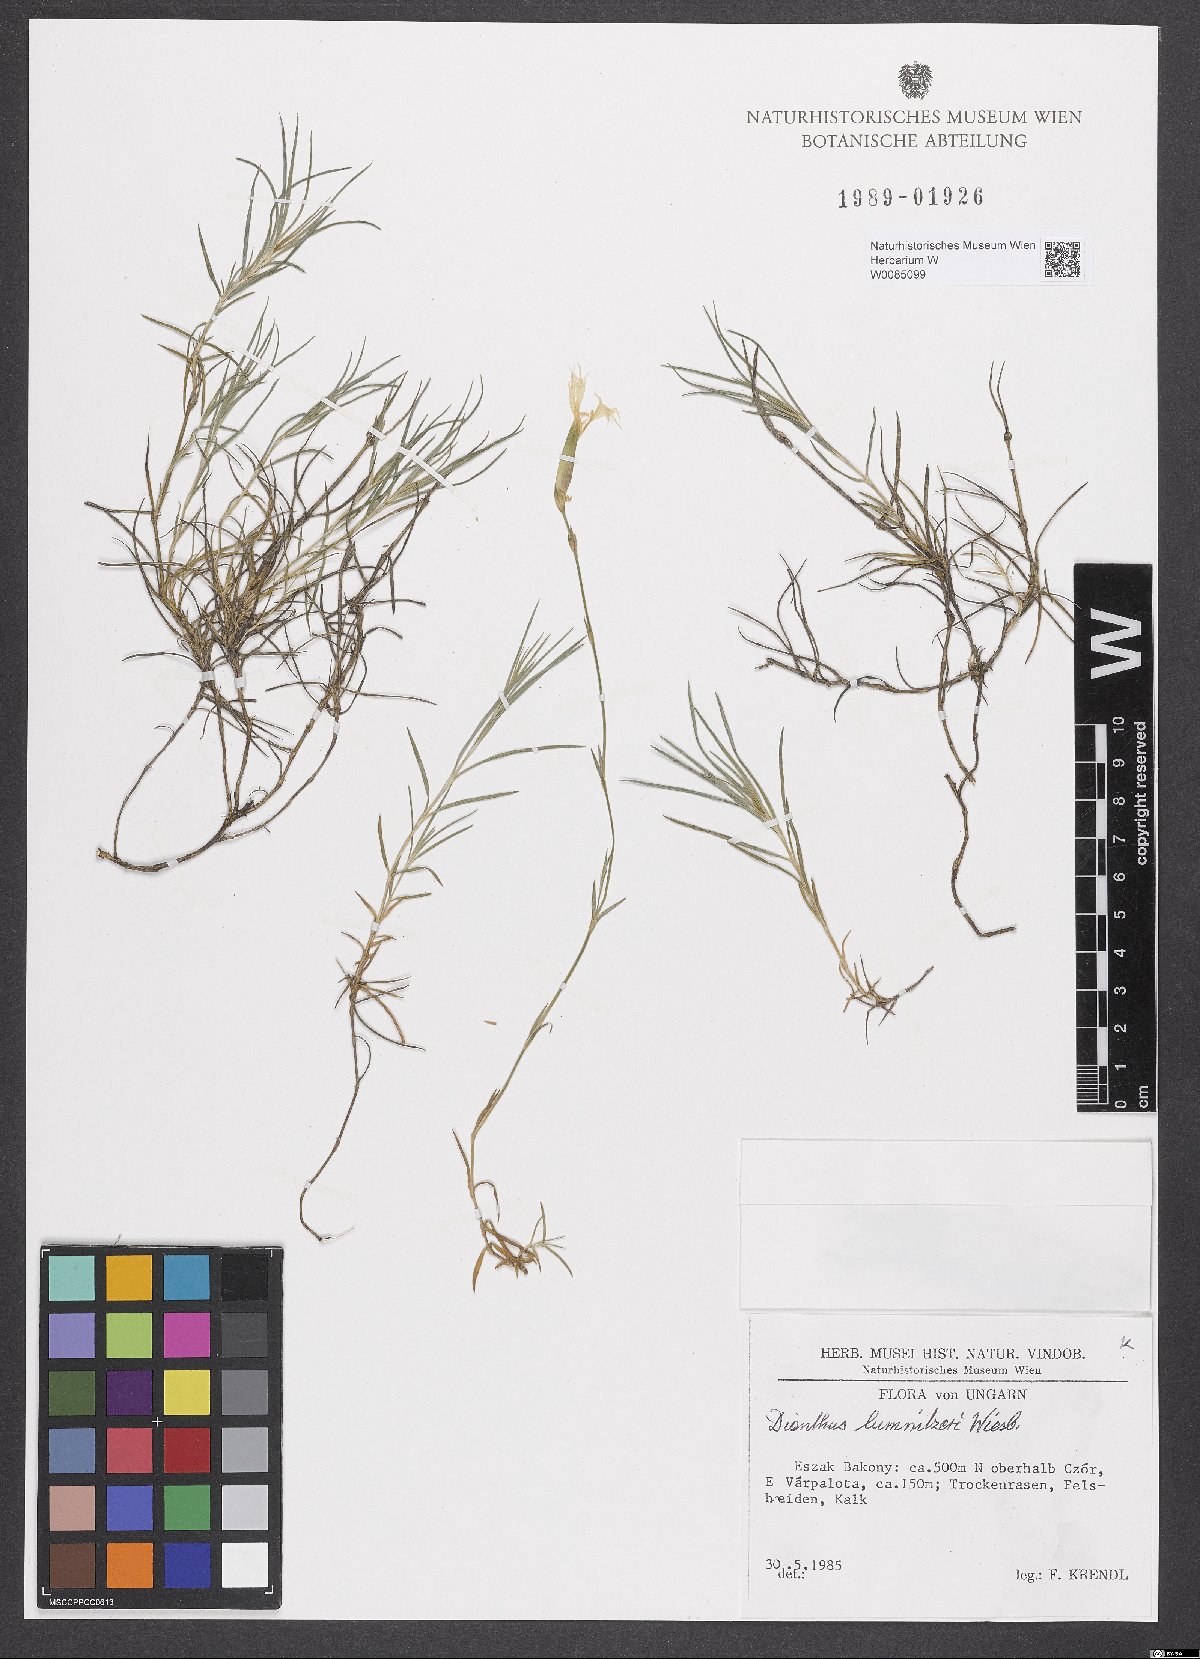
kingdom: Plantae
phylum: Tracheophyta
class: Magnoliopsida
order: Caryophyllales
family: Caryophyllaceae
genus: Dianthus
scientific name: Dianthus praecox
